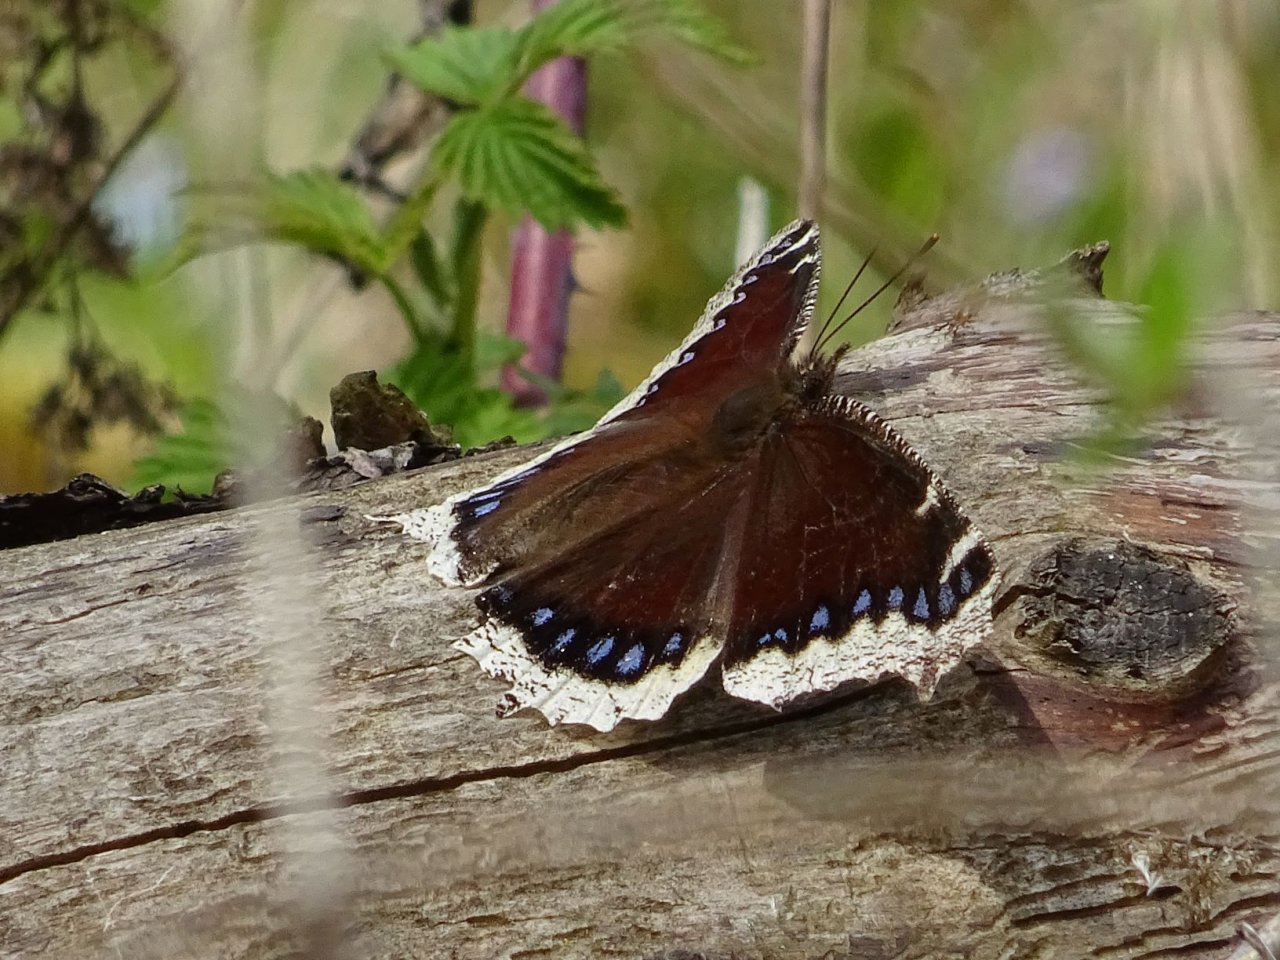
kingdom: Animalia
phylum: Arthropoda
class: Insecta
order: Lepidoptera
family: Nymphalidae
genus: Nymphalis
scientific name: Nymphalis antiopa
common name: Mourning Cloak
